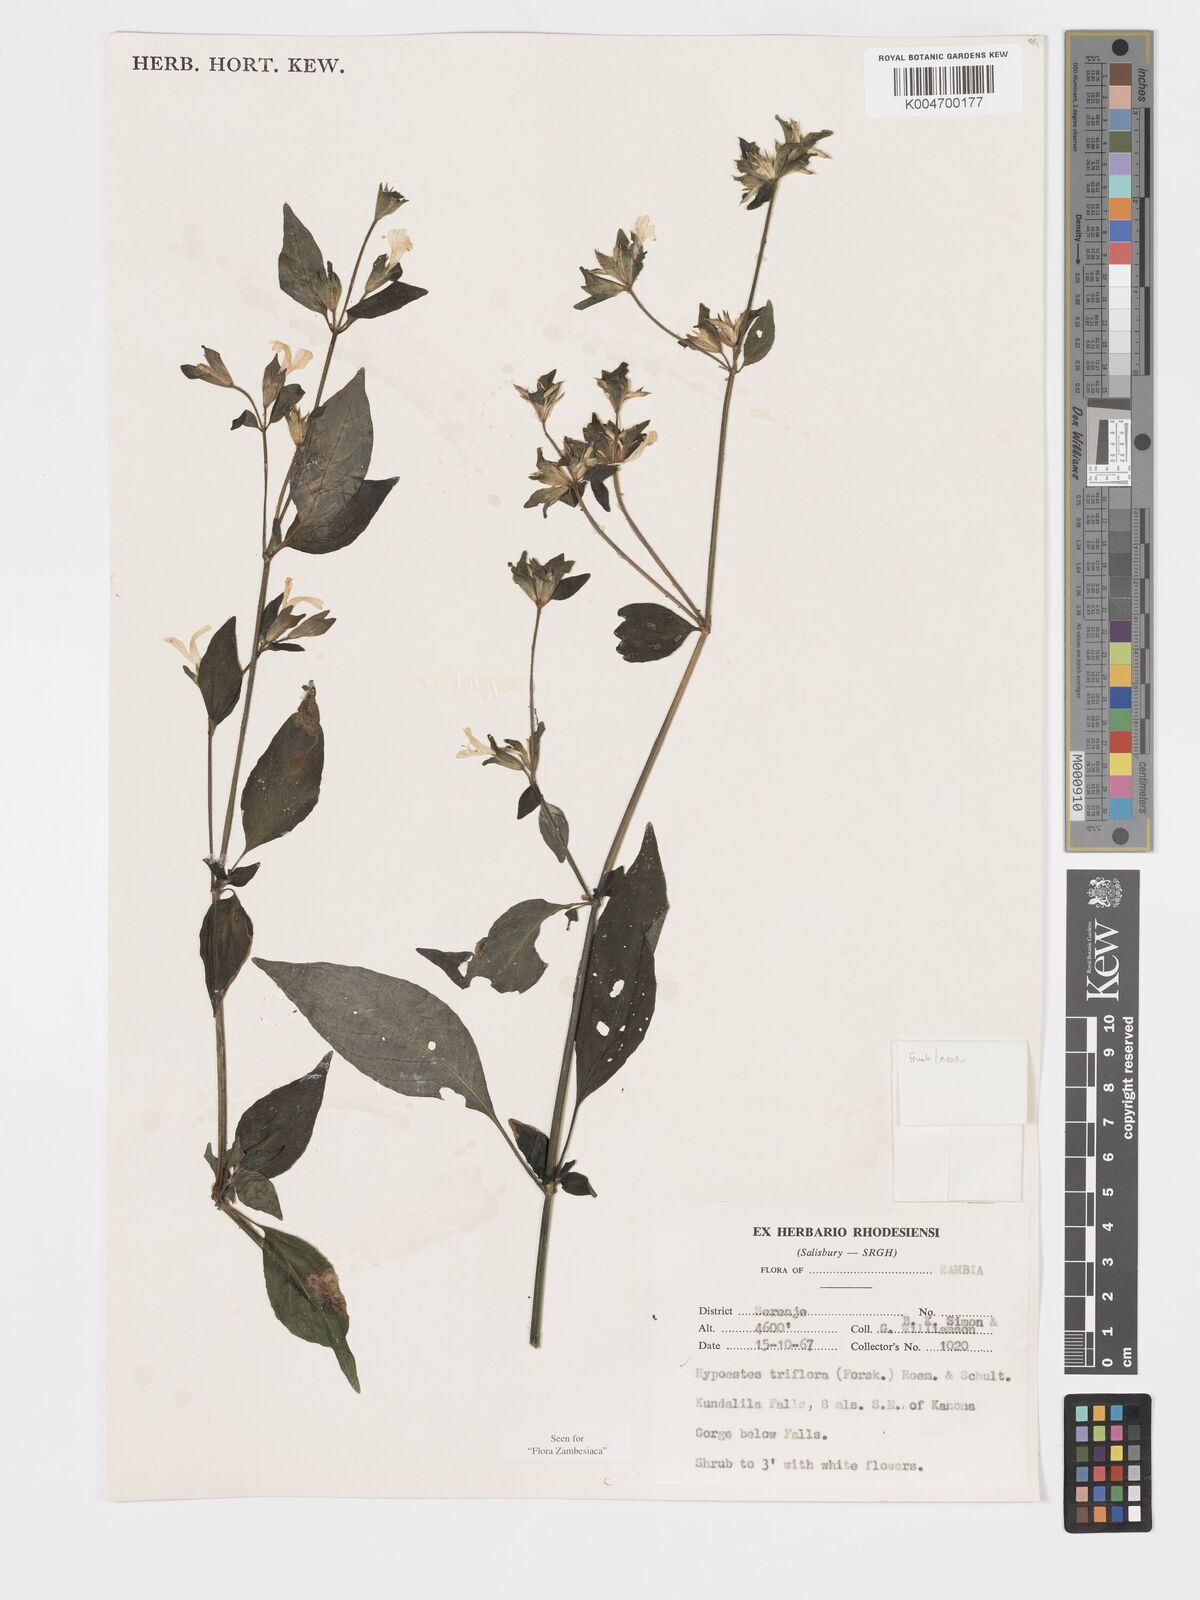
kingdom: Plantae
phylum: Tracheophyta
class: Magnoliopsida
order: Lamiales
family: Acanthaceae
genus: Hypoestes
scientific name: Hypoestes triflora
